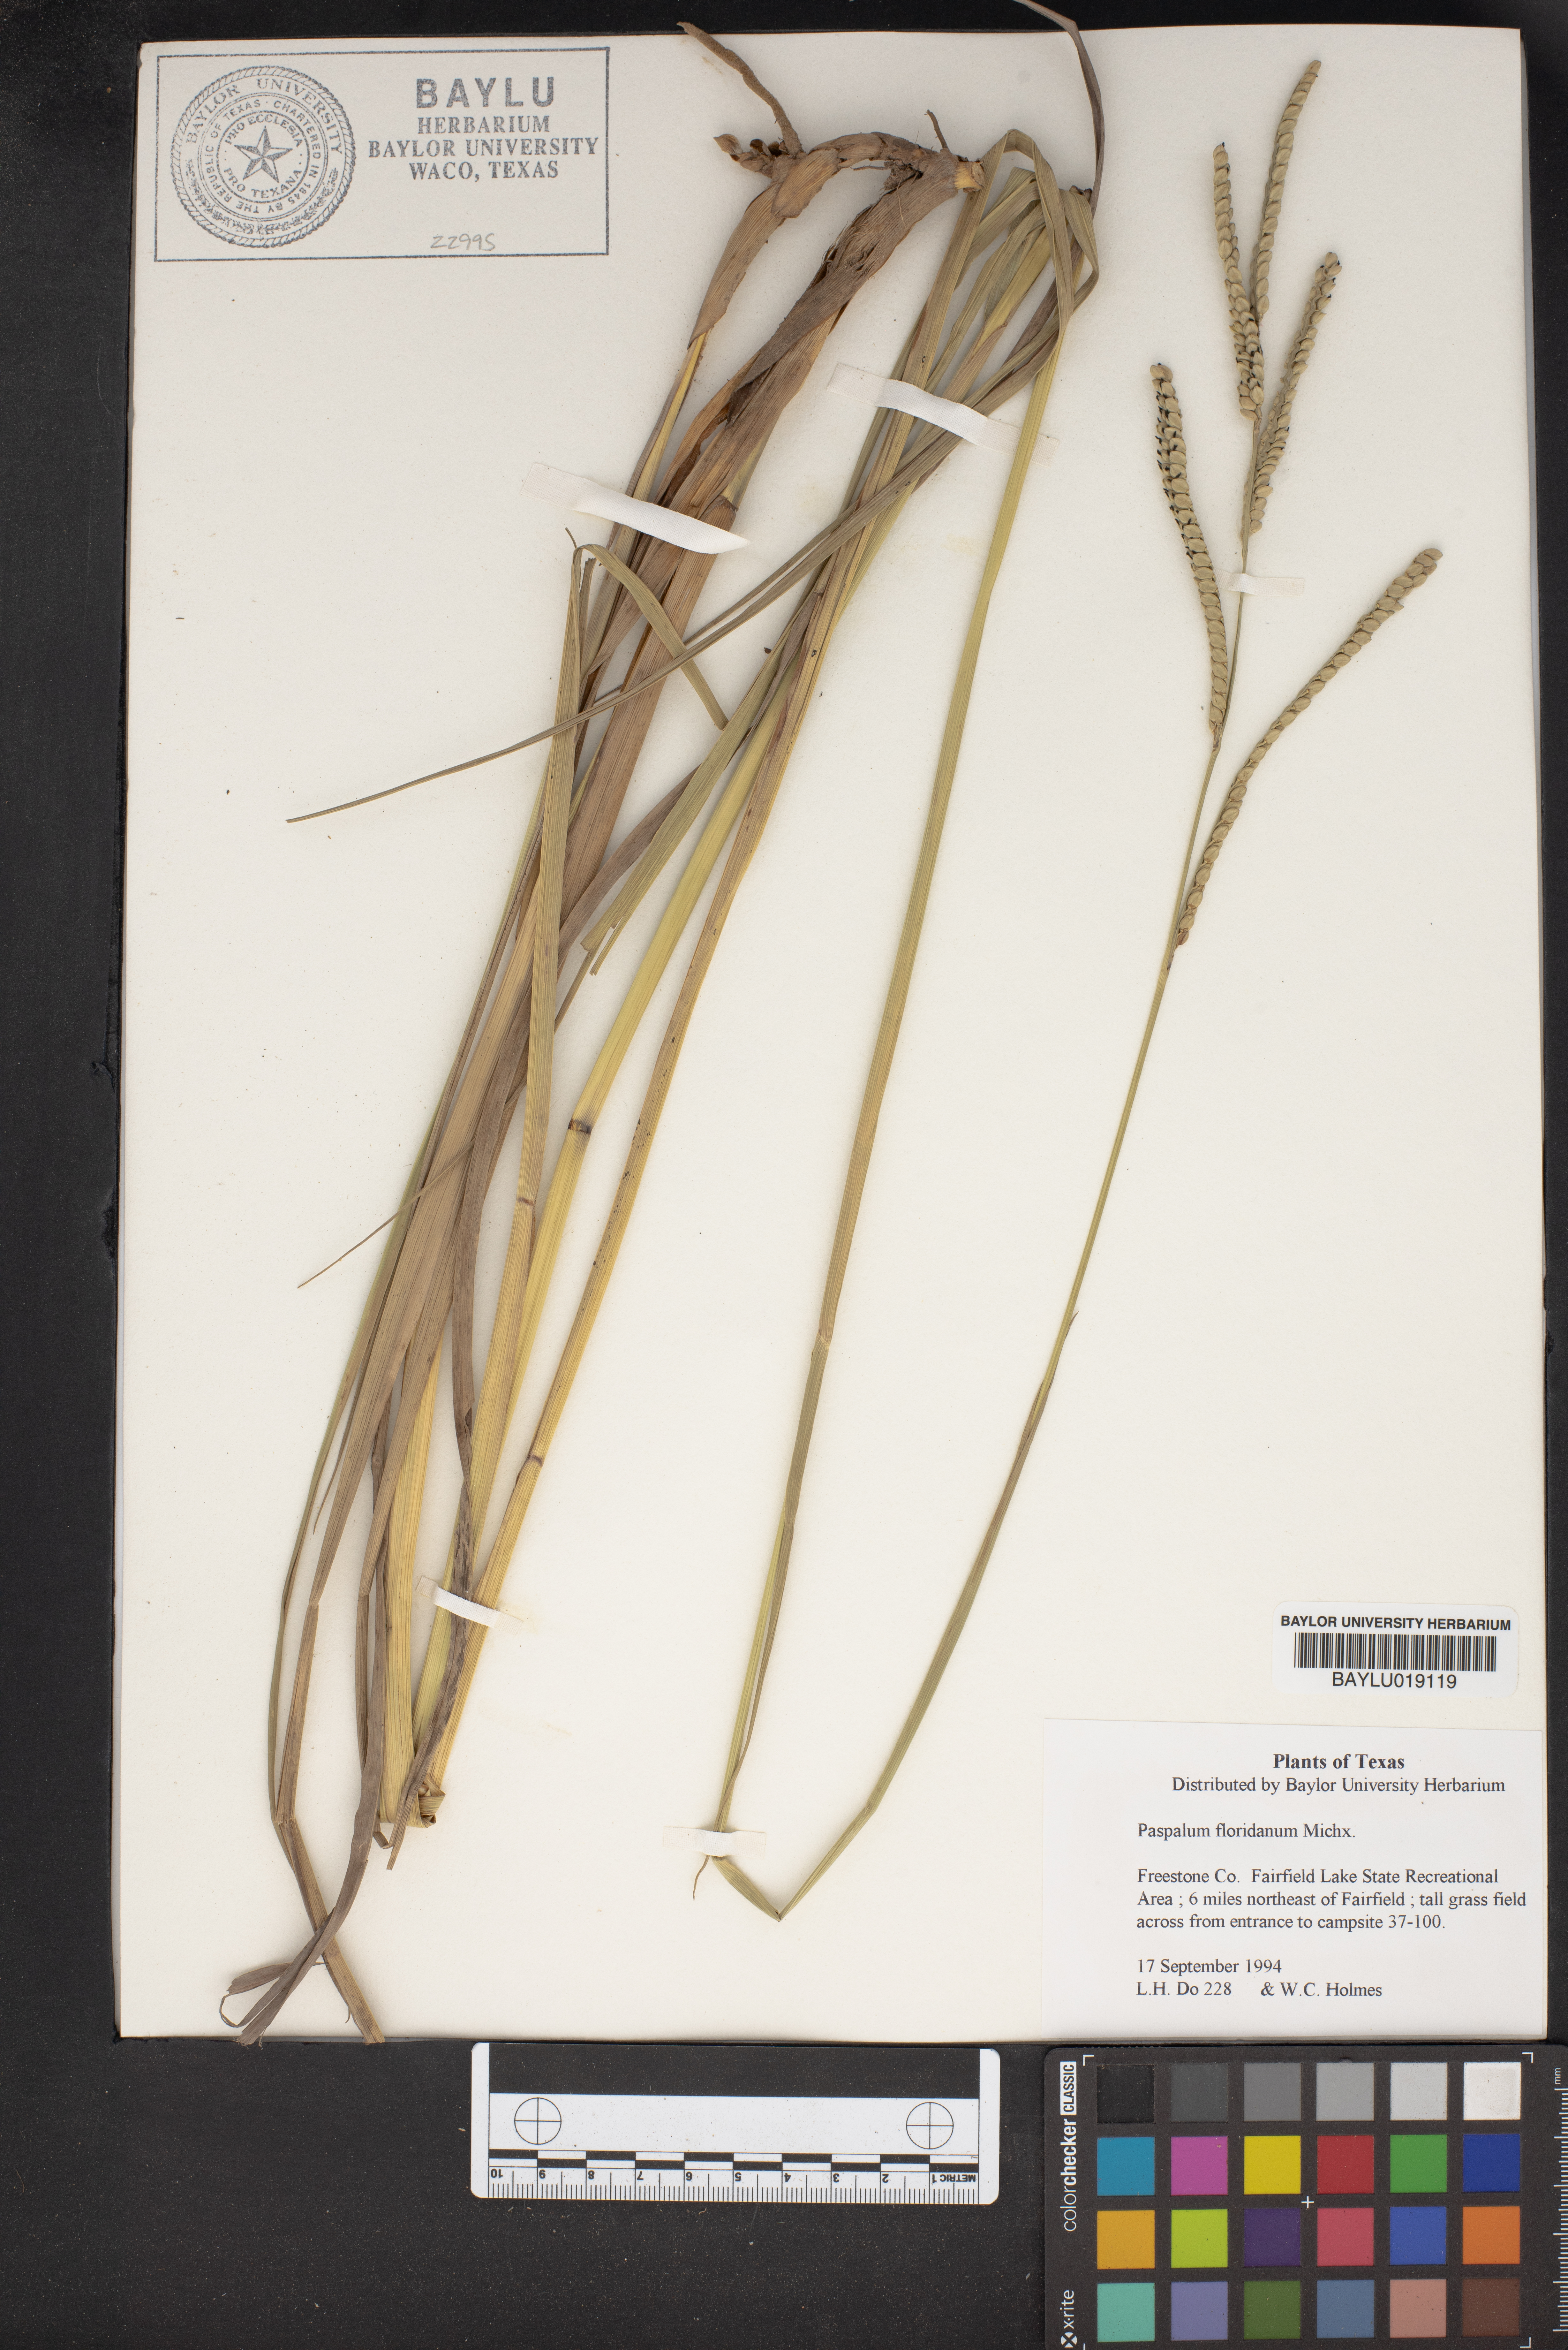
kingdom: Plantae
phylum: Tracheophyta
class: Liliopsida
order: Poales
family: Poaceae
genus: Paspalum
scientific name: Paspalum floridanum
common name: Florida paspalum
